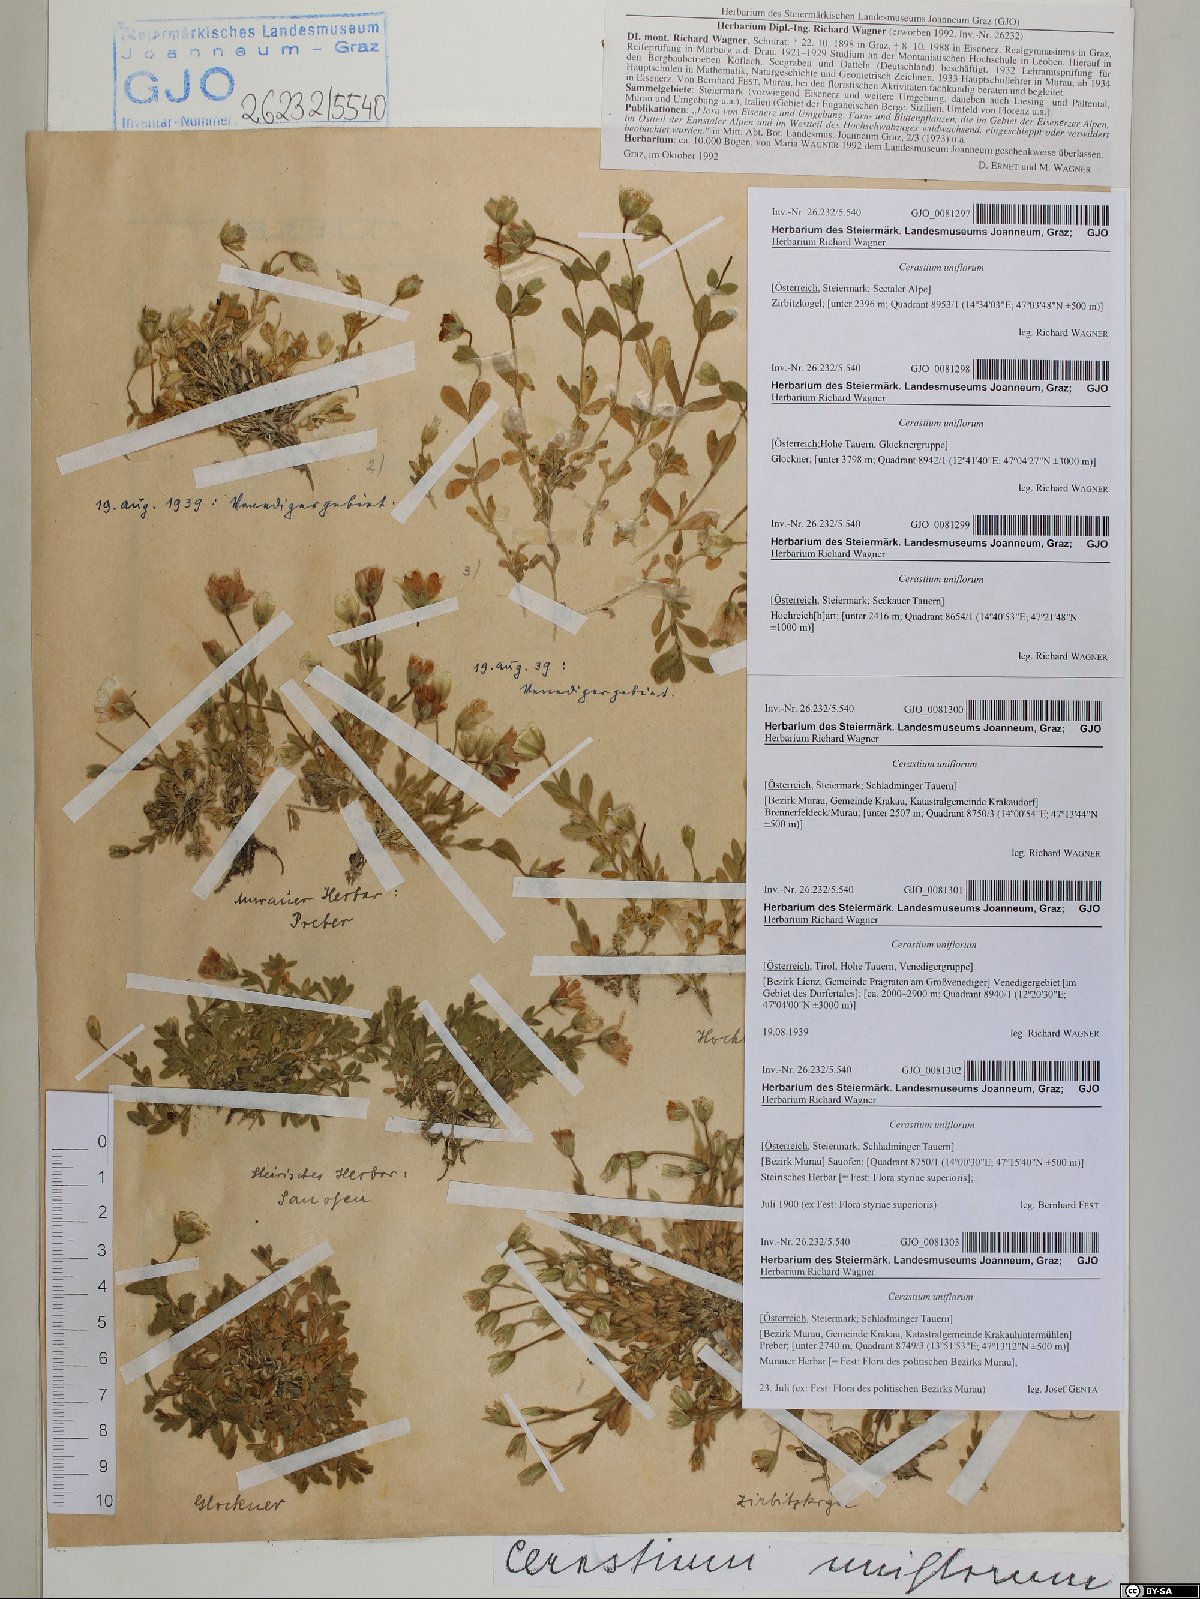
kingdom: Plantae
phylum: Tracheophyta
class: Magnoliopsida
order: Caryophyllales
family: Caryophyllaceae
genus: Cerastium
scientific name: Cerastium uniflorum
